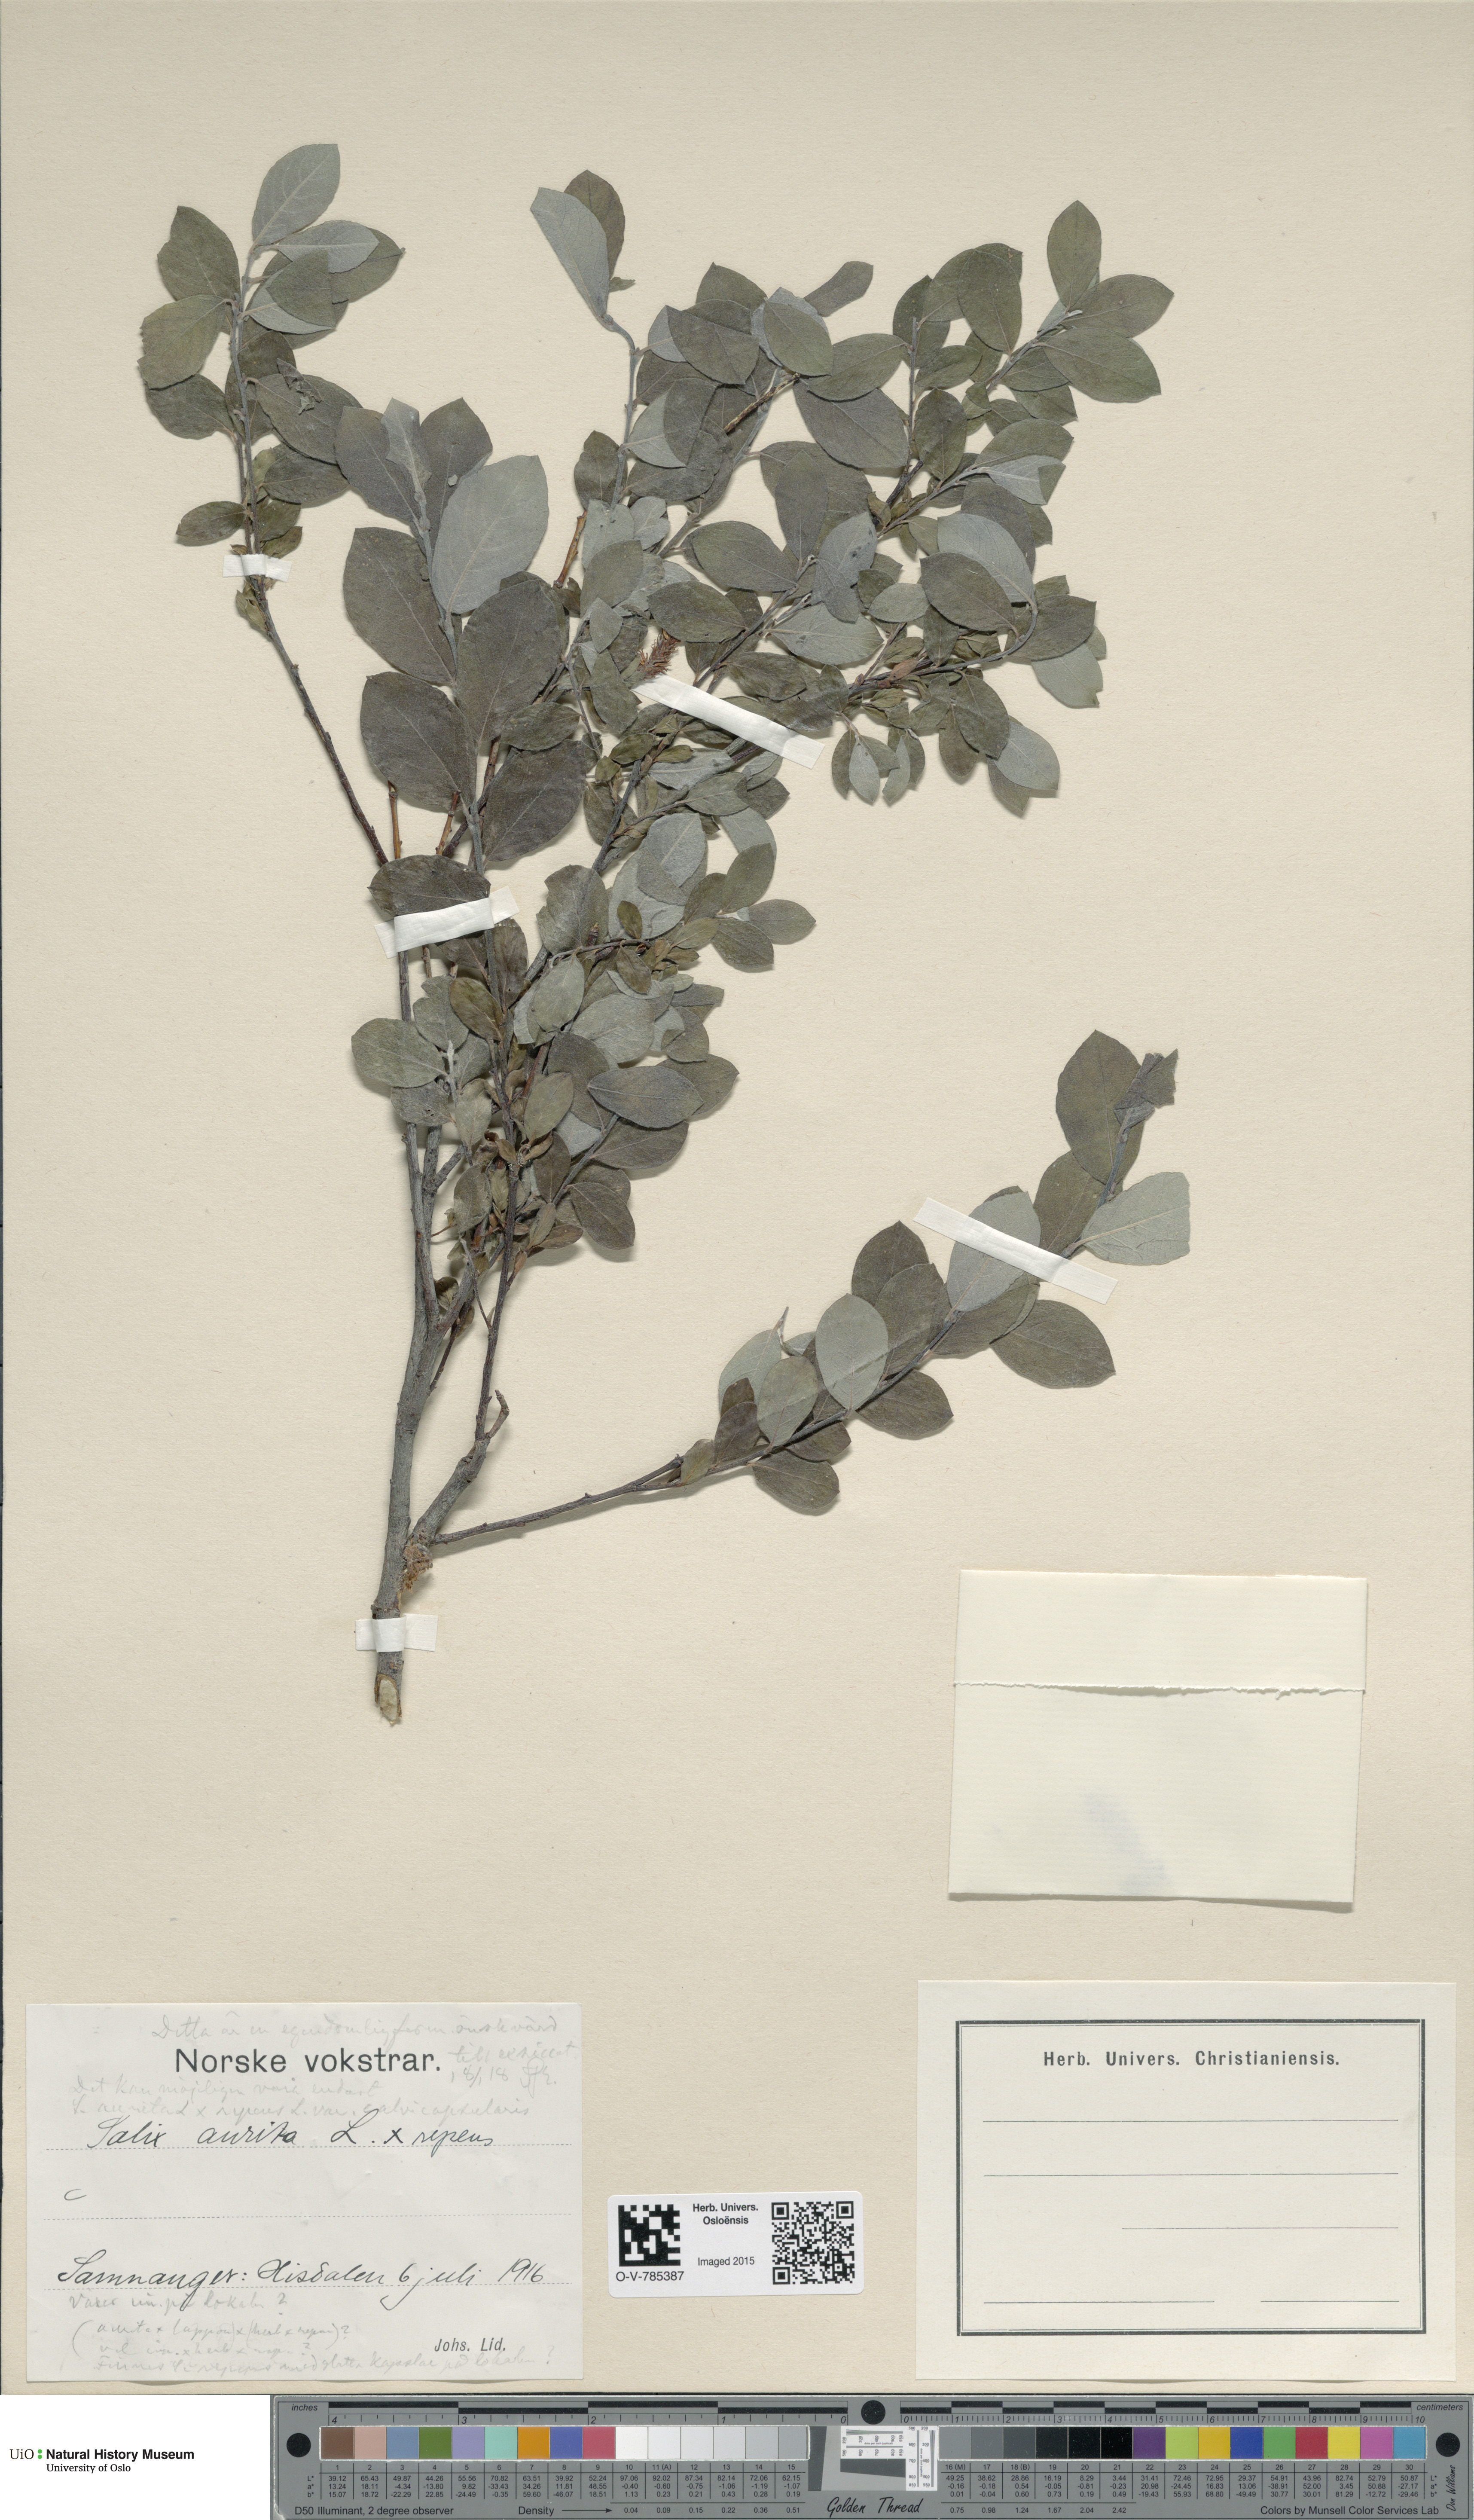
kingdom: Plantae
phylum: Tracheophyta
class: Magnoliopsida
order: Malpighiales
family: Salicaceae
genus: Salix
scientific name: Salix
